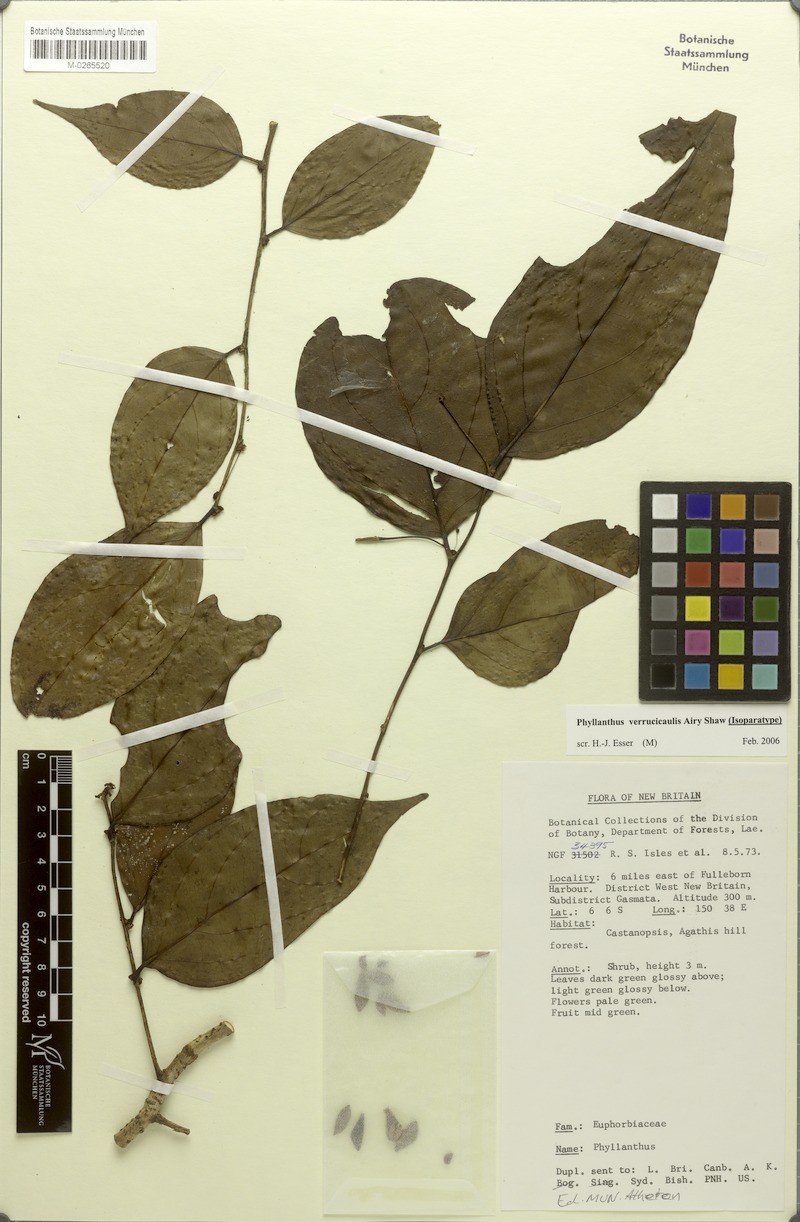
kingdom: Plantae
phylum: Tracheophyta
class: Magnoliopsida
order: Malpighiales
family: Phyllanthaceae
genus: Phyllanthus
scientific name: Phyllanthus verrucicaulis
